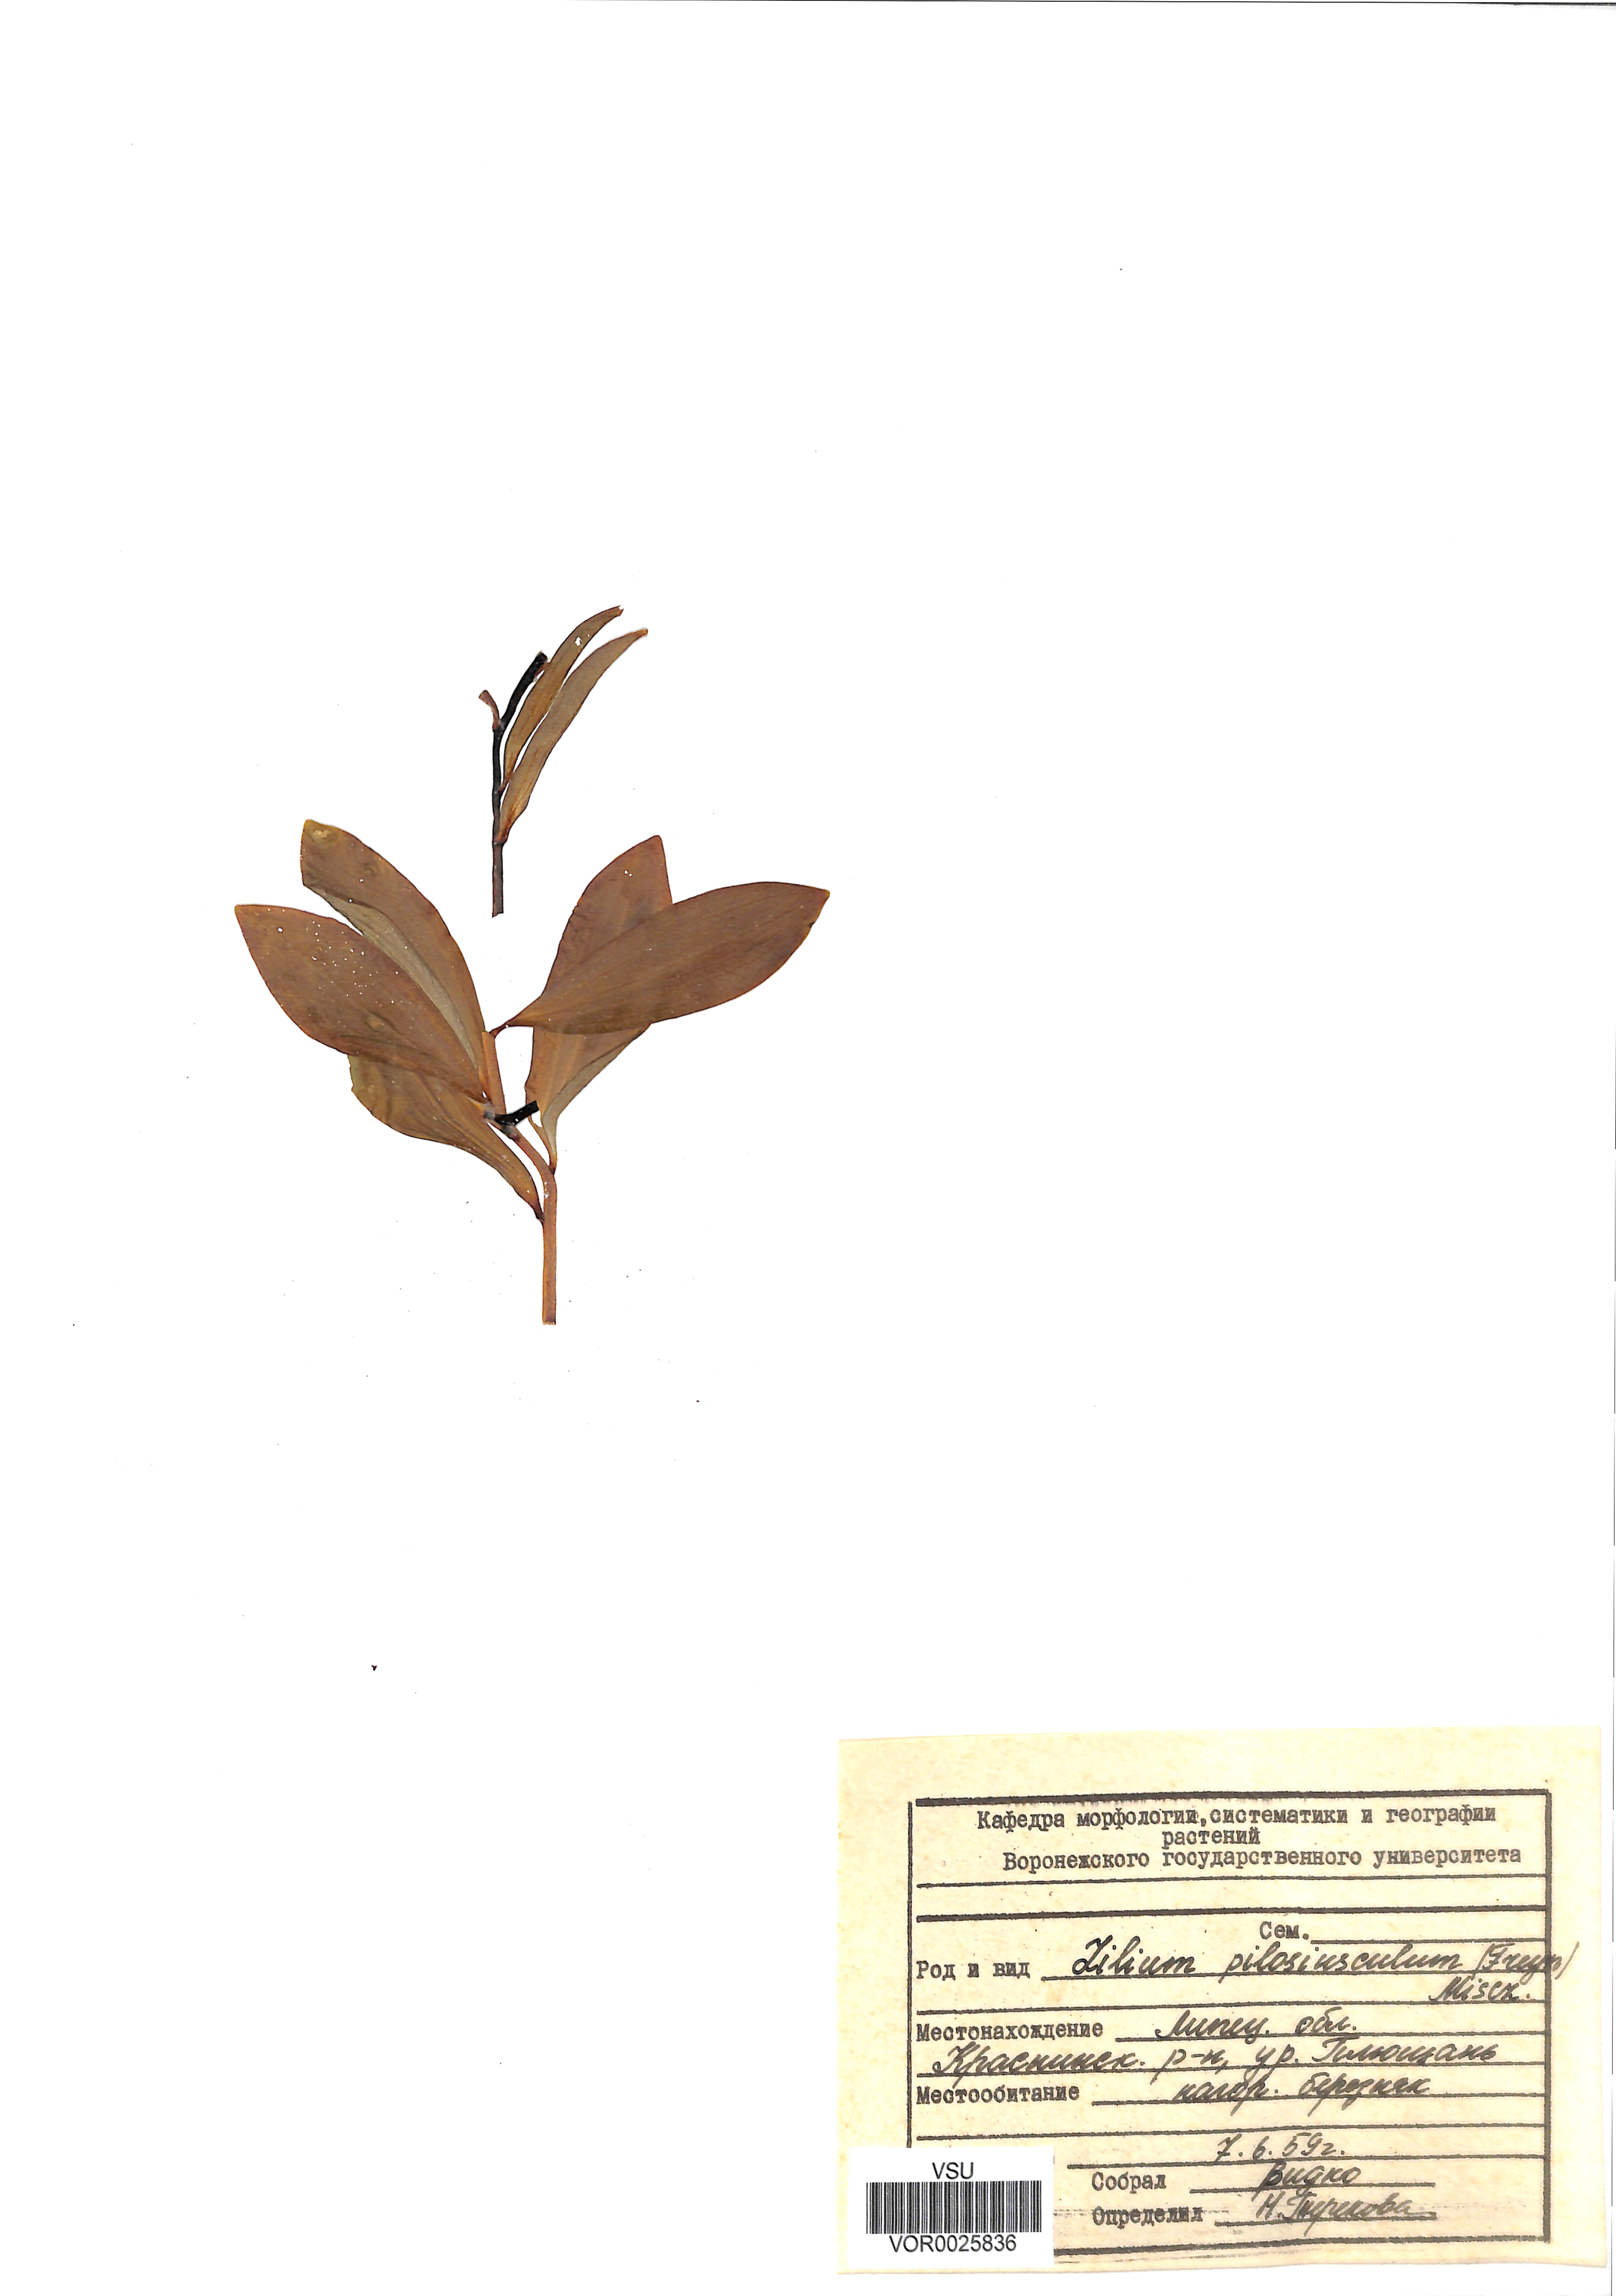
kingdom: Plantae
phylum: Tracheophyta
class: Liliopsida
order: Liliales
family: Liliaceae
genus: Lilium
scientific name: Lilium martagon
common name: Martagon lily
